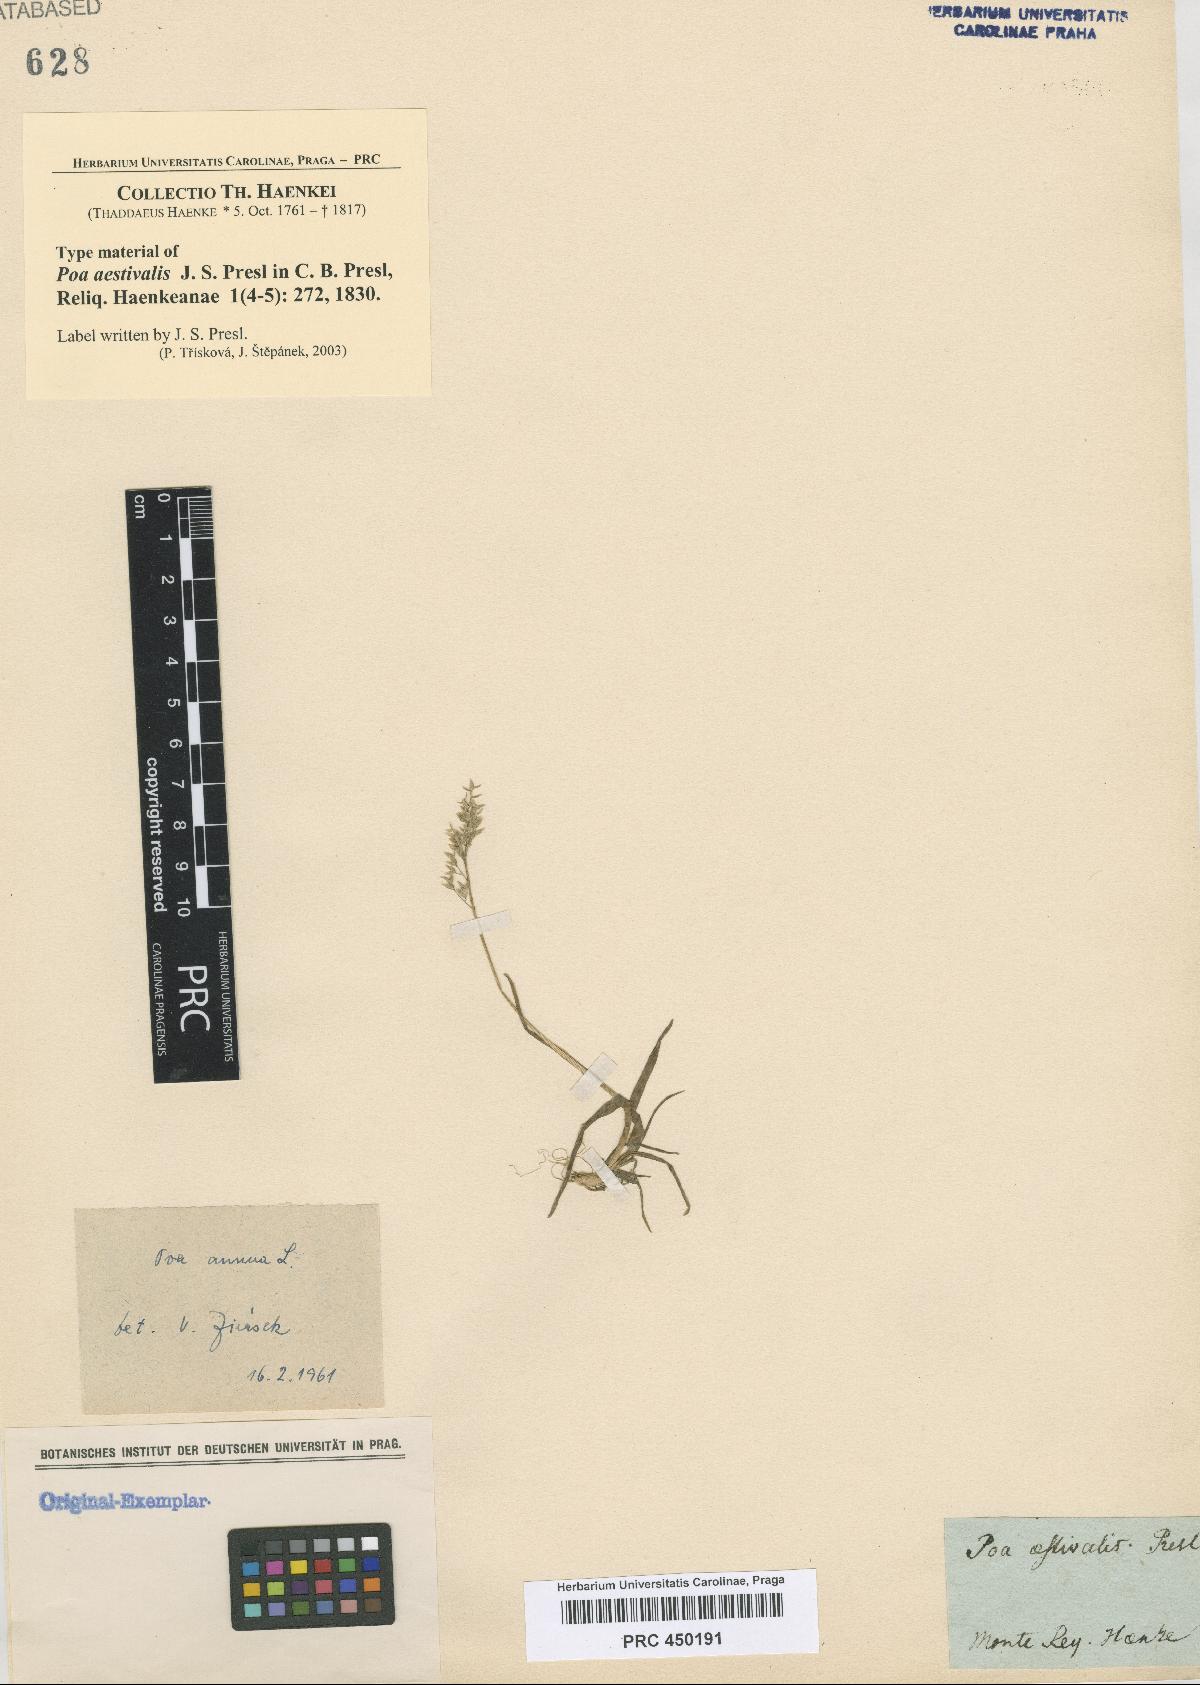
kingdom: Plantae
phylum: Tracheophyta
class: Liliopsida
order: Poales
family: Poaceae
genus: Poa
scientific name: Poa annua
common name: Annual bluegrass
